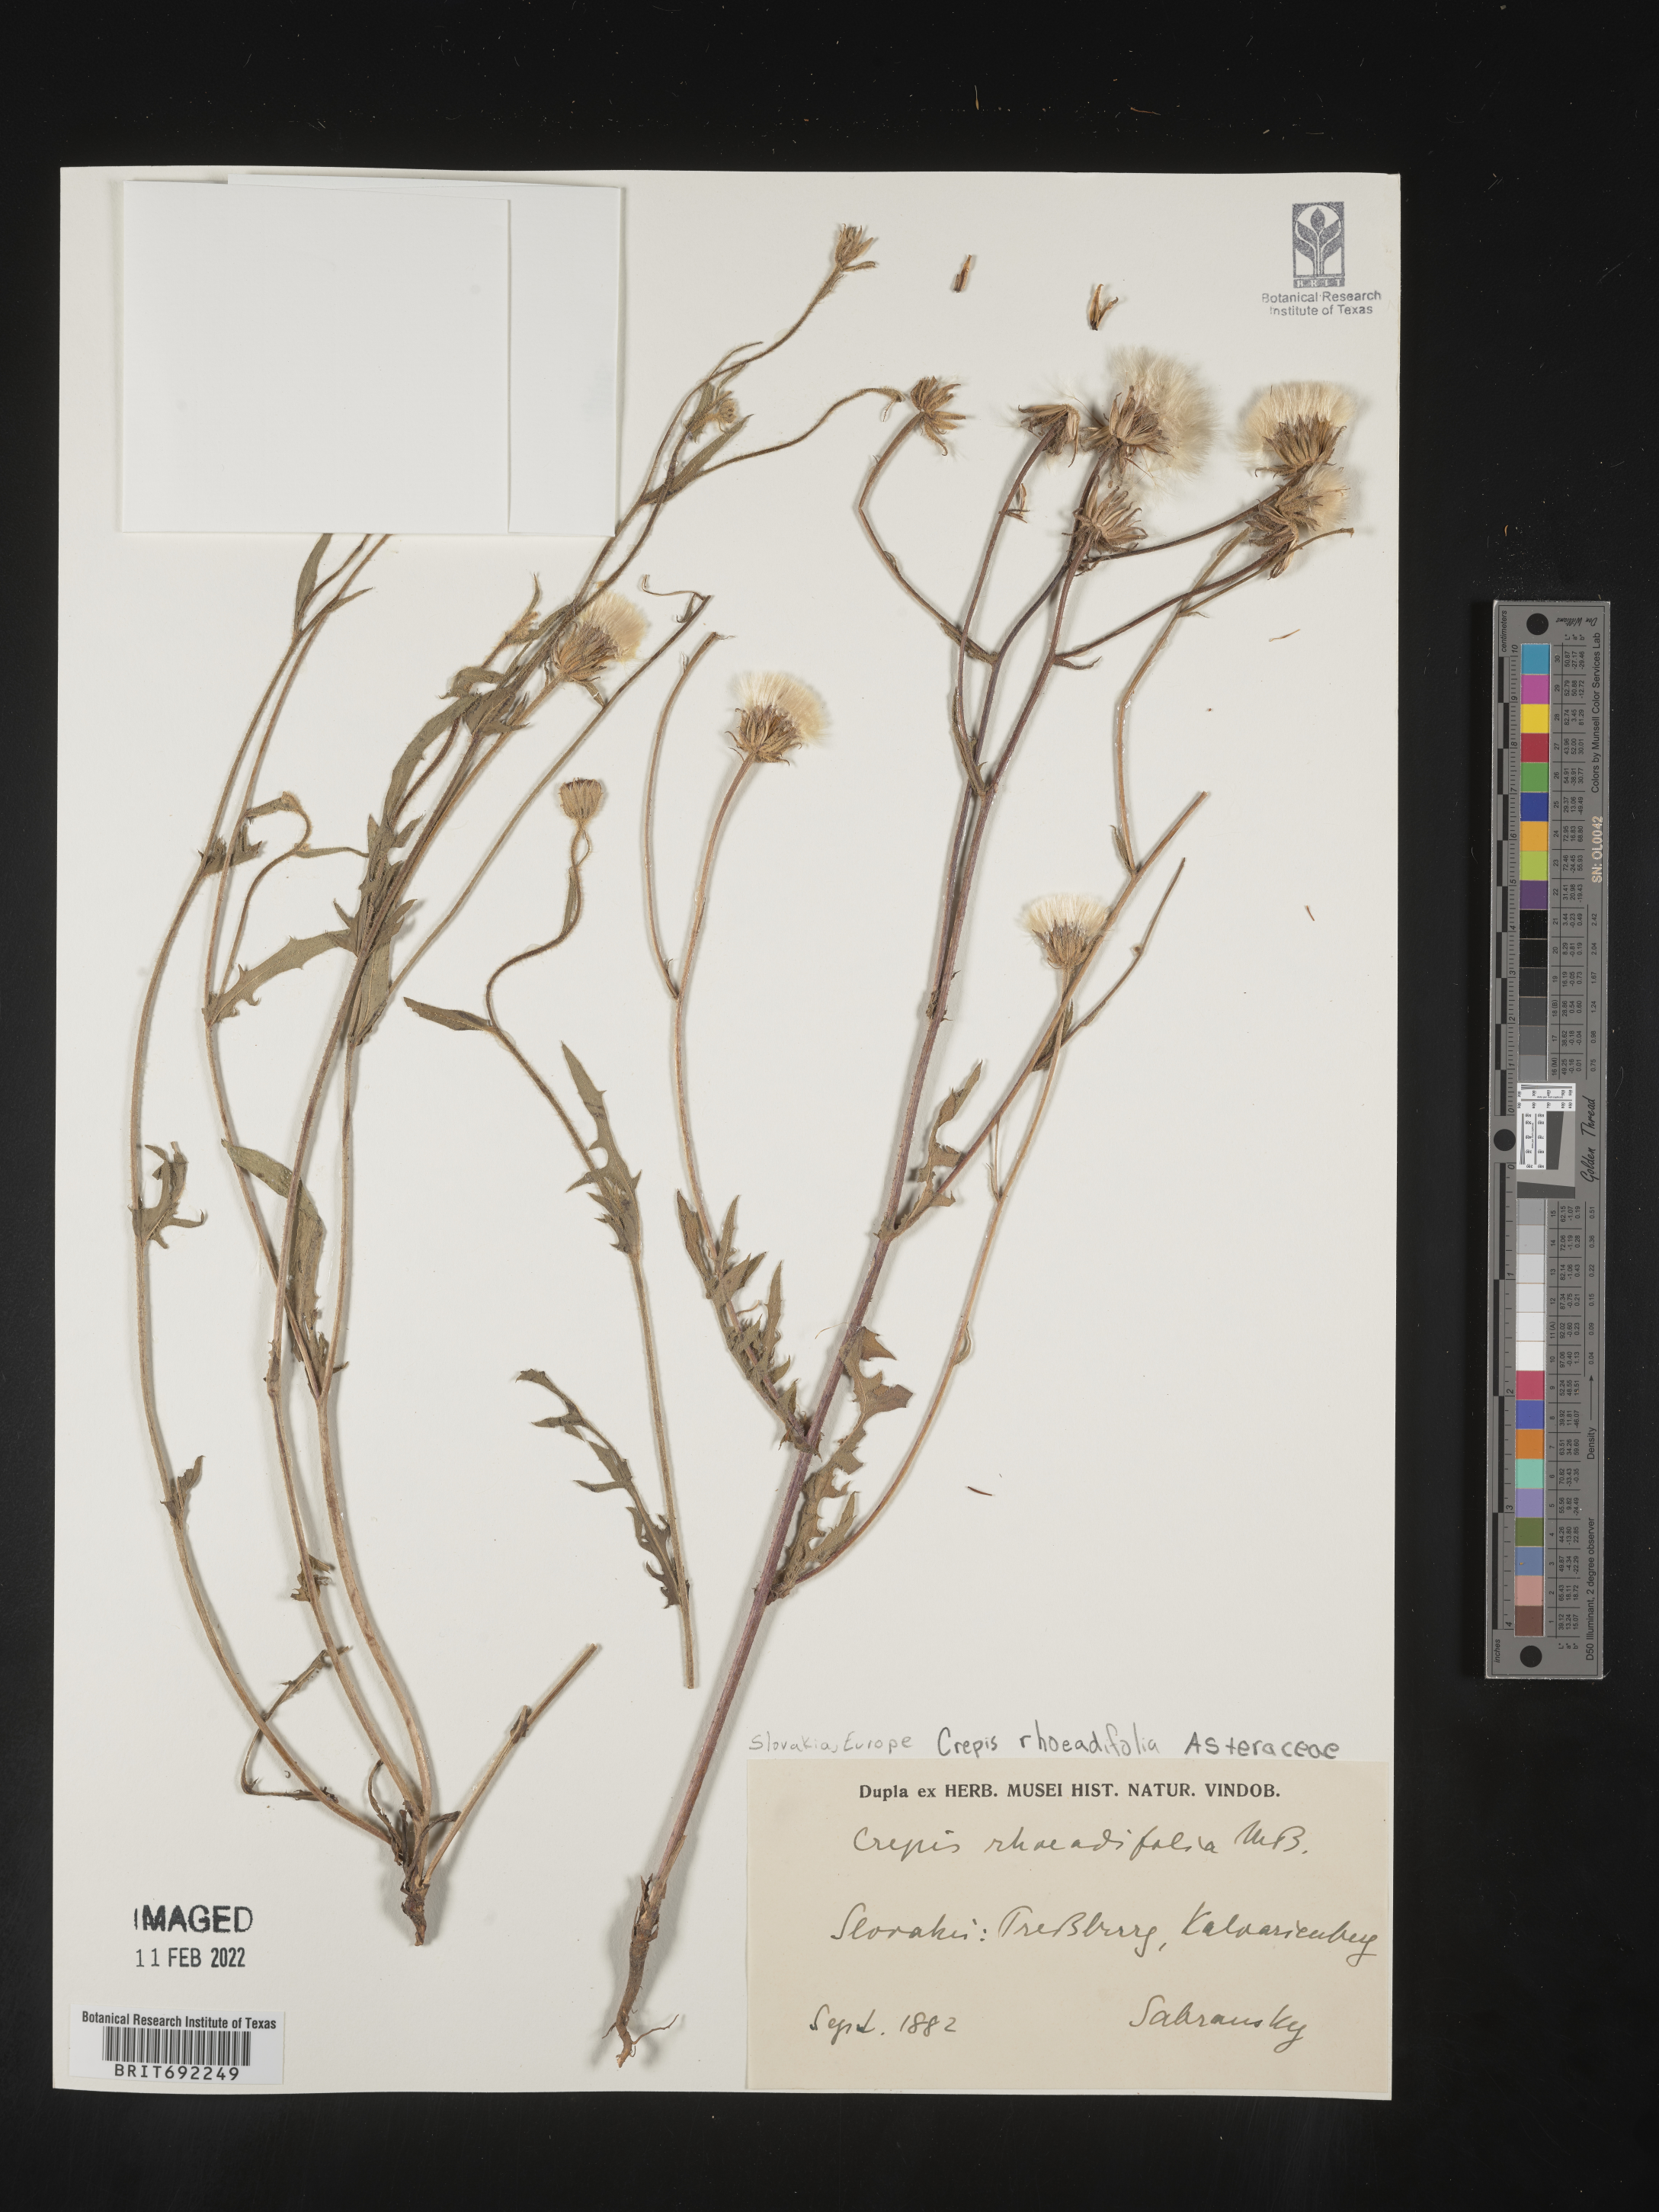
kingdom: Plantae
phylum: Tracheophyta
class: Magnoliopsida
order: Asterales
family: Asteraceae
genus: Crepis
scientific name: Crepis
